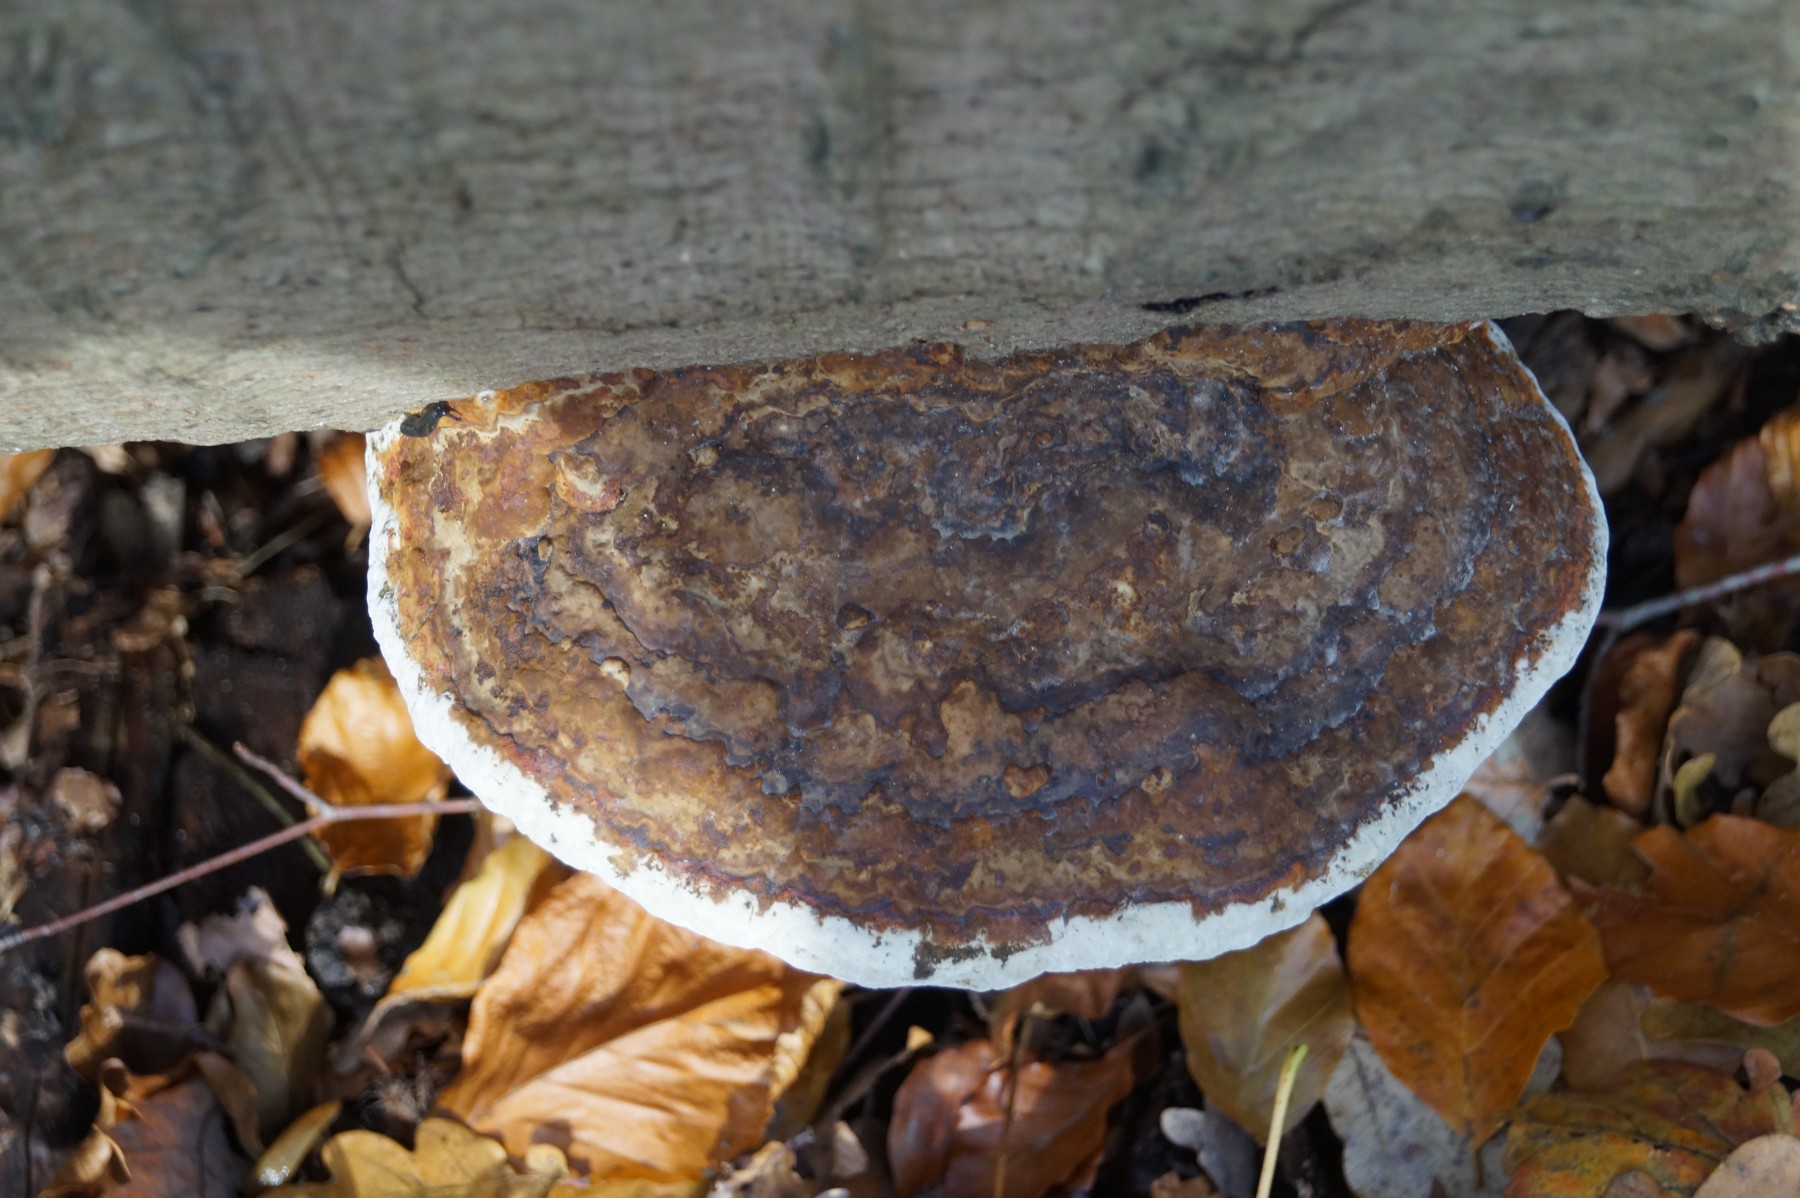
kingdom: Fungi
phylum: Basidiomycota
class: Agaricomycetes
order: Polyporales
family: Polyporaceae
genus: Ganoderma
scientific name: Ganoderma applanatum
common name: flad lakporesvamp
